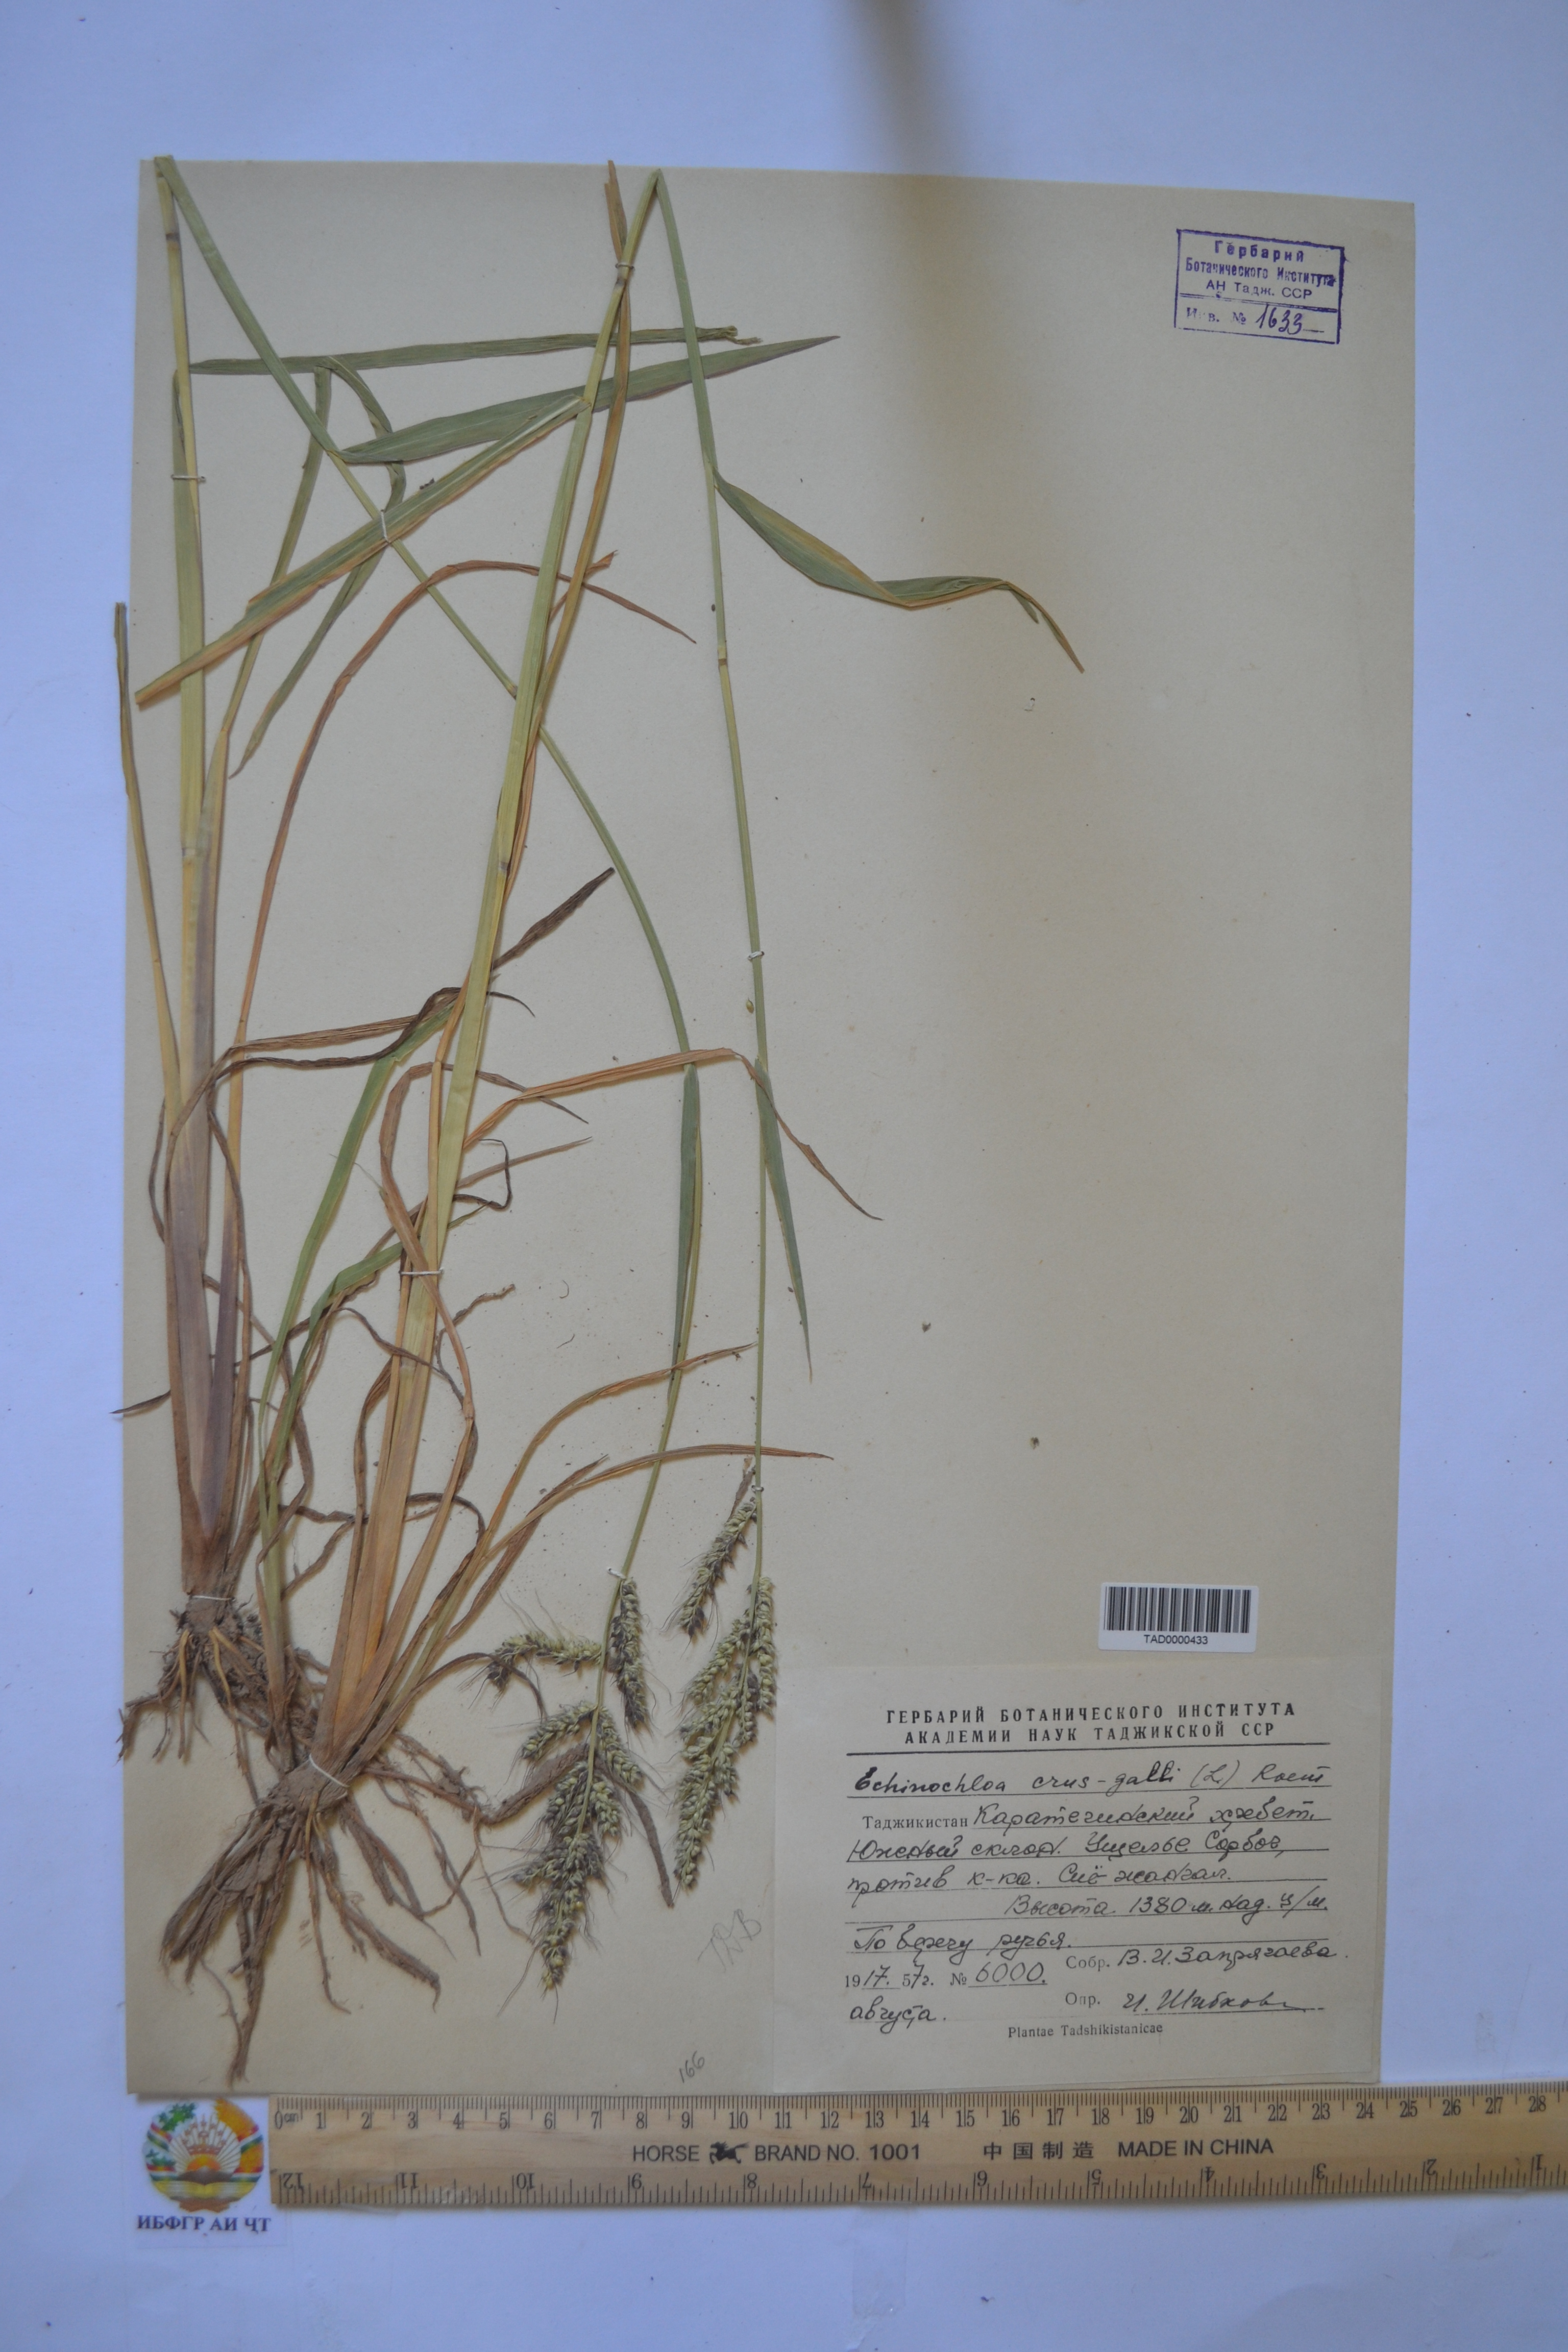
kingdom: Plantae
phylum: Tracheophyta
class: Liliopsida
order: Poales
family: Poaceae
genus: Echinochloa
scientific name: Echinochloa crus-galli
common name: Cockspur
